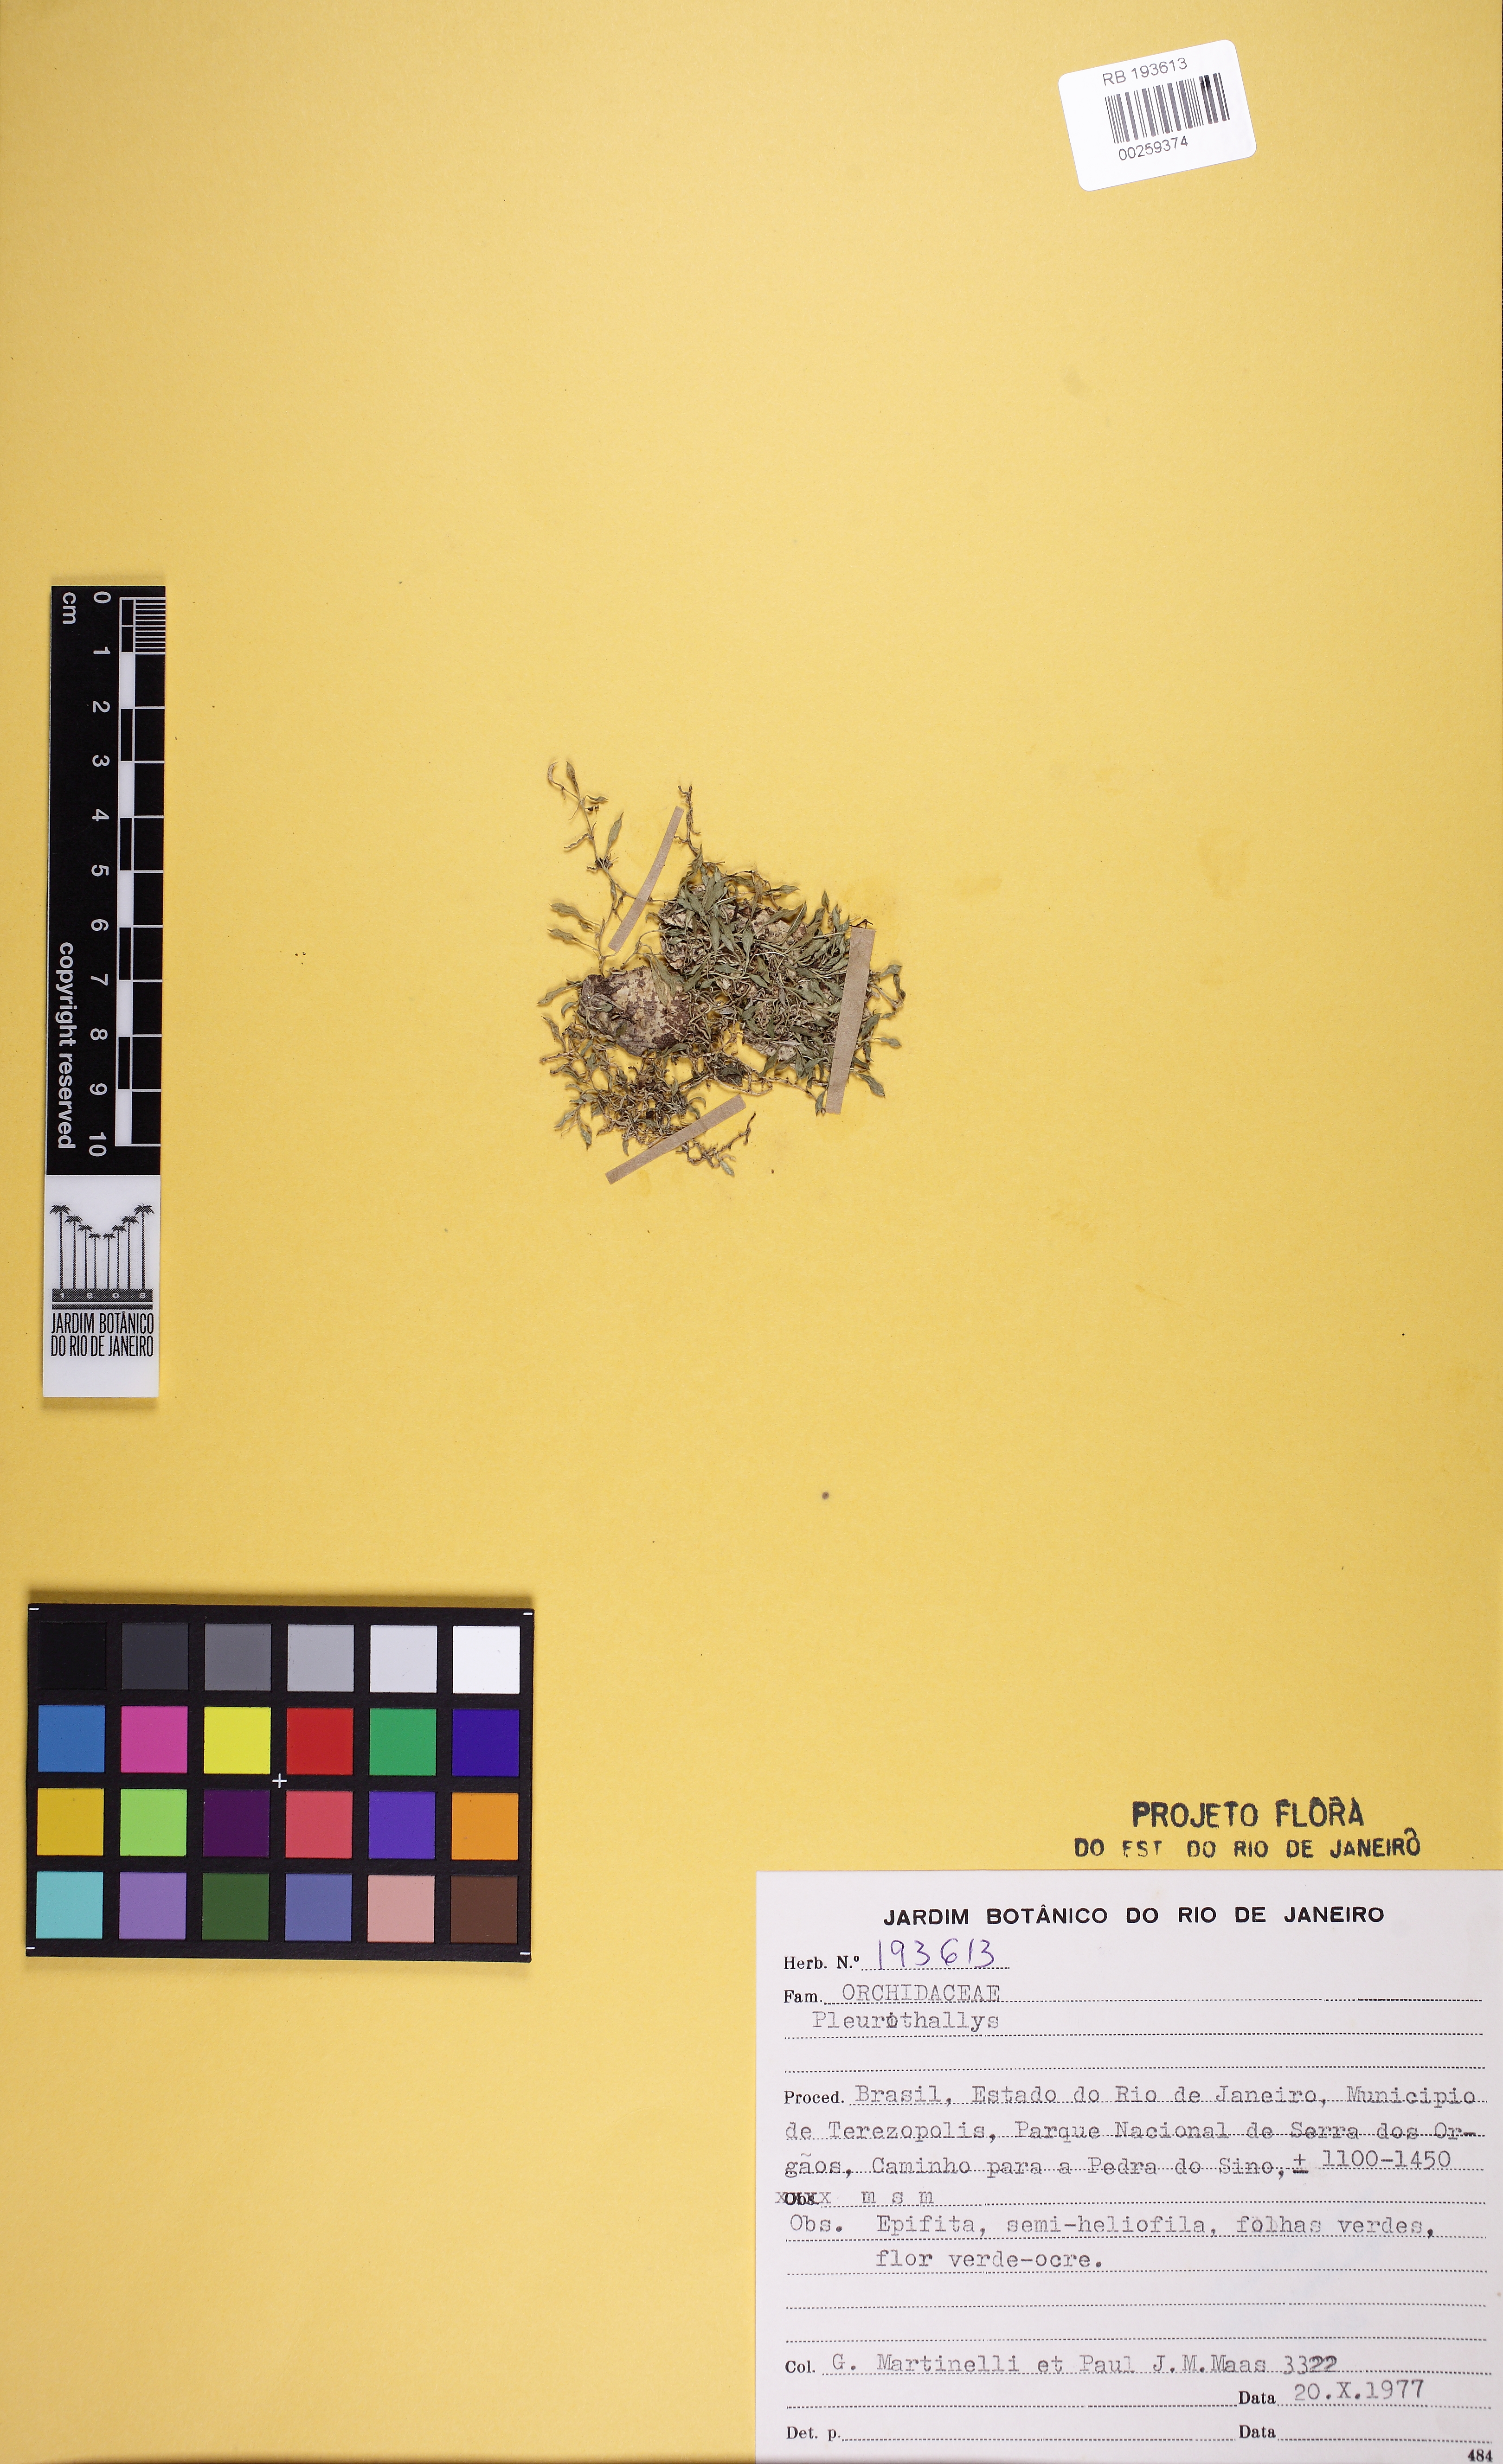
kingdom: Plantae
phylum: Tracheophyta
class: Liliopsida
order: Asparagales
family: Orchidaceae
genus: Barbosella
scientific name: Barbosella miersii
